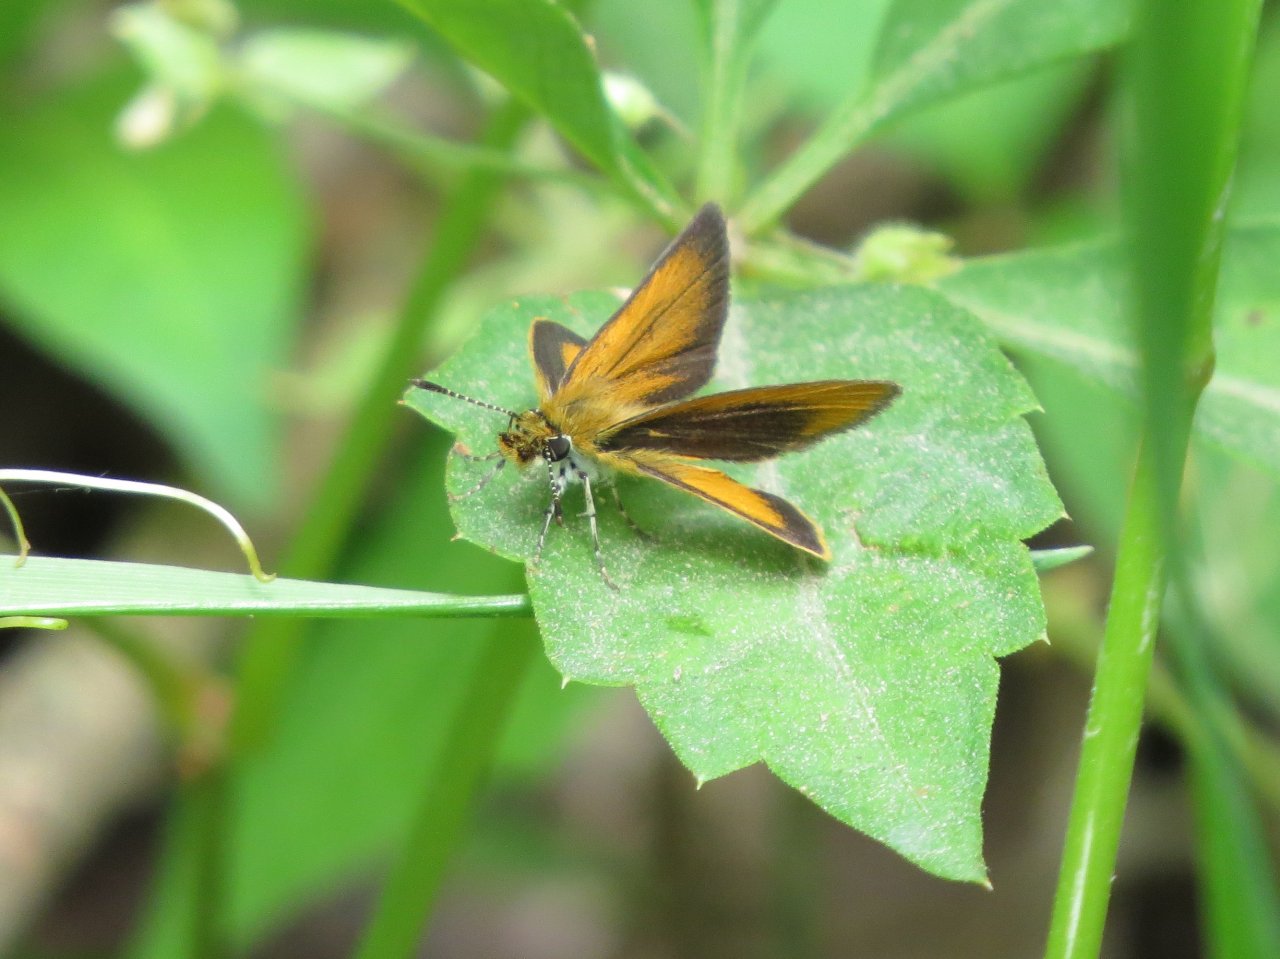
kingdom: Animalia
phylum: Arthropoda
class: Insecta
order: Lepidoptera
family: Hesperiidae
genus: Ancyloxypha
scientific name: Ancyloxypha numitor
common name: Least Skipper
